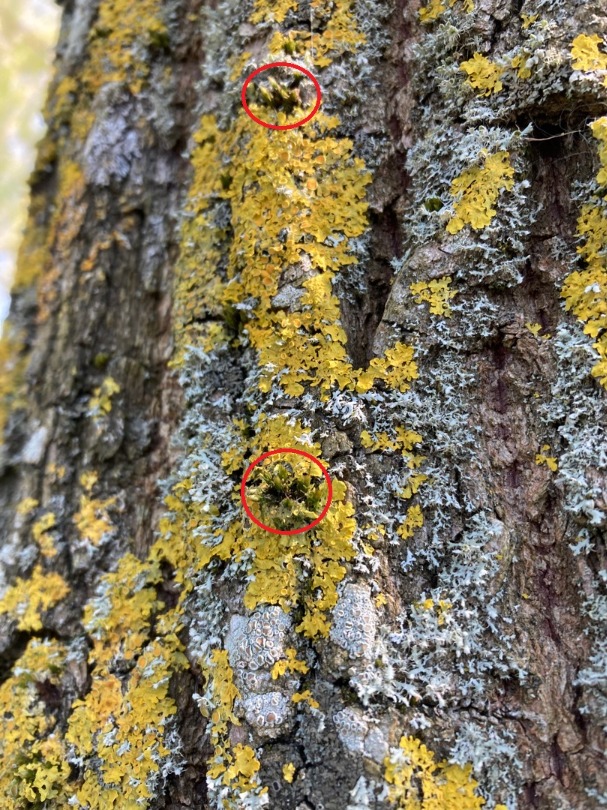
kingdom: Plantae
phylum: Bryophyta
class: Bryopsida
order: Orthotrichales
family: Orthotrichaceae
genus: Orthotrichum
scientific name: Orthotrichum
